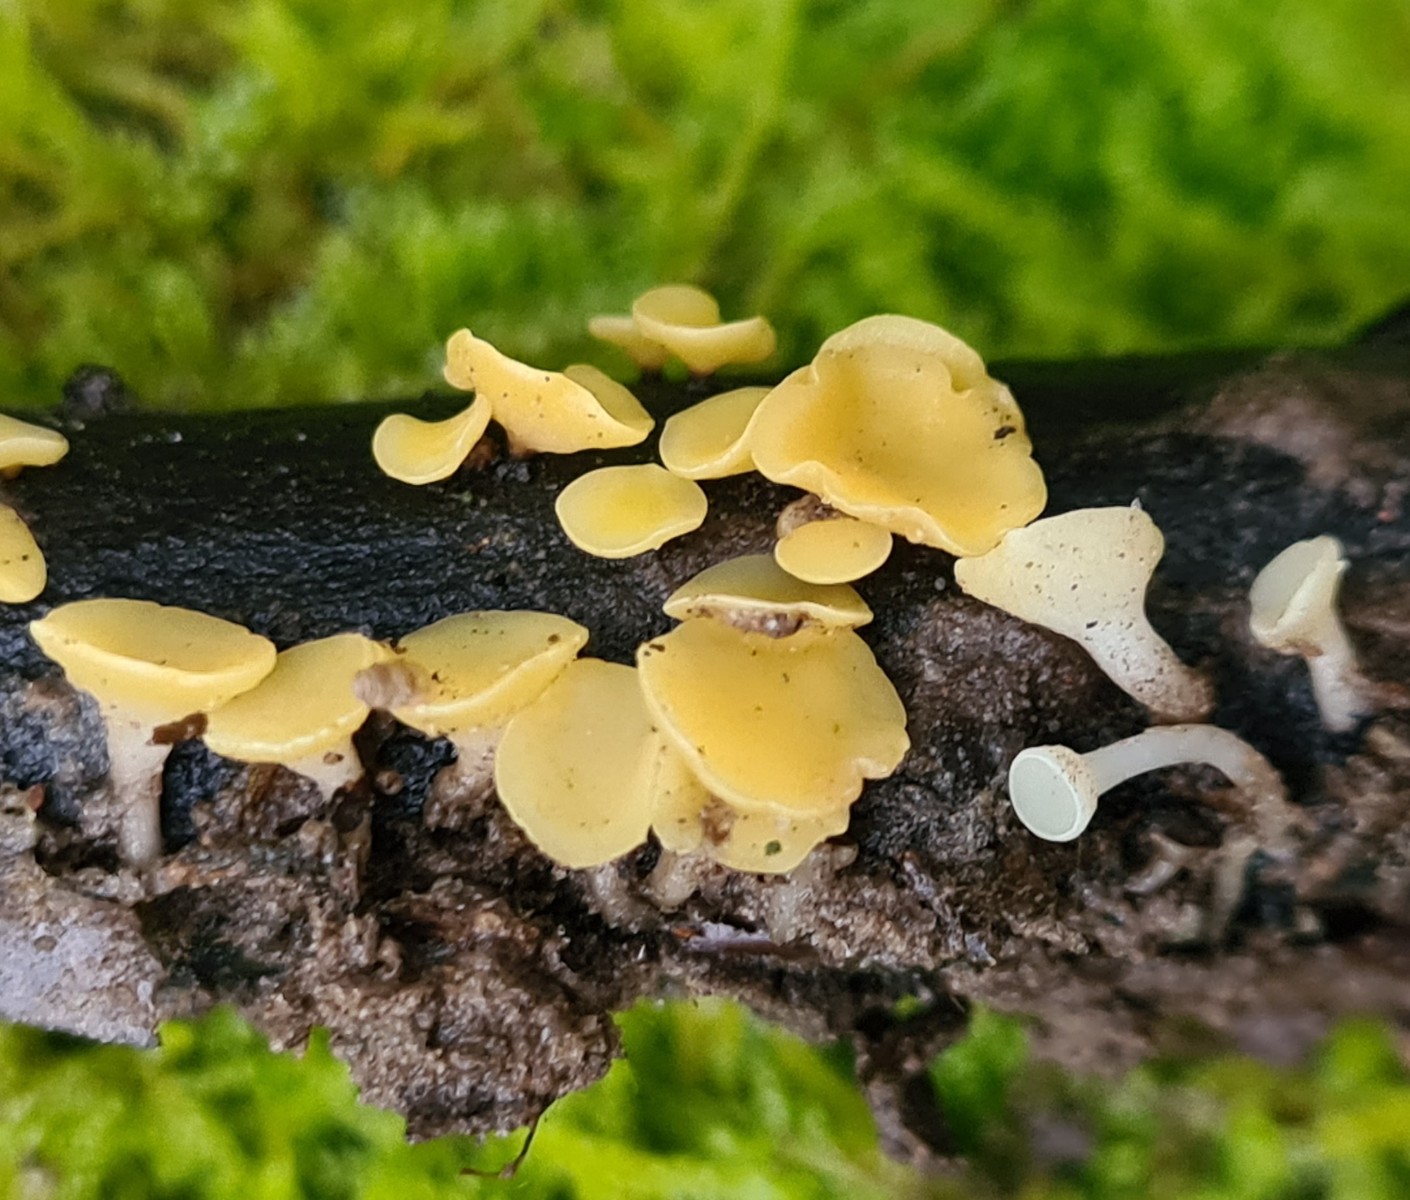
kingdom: Fungi
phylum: Ascomycota
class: Leotiomycetes
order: Helotiales
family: Helotiaceae
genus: Hymenoscyphus
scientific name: Hymenoscyphus
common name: stilkskive
